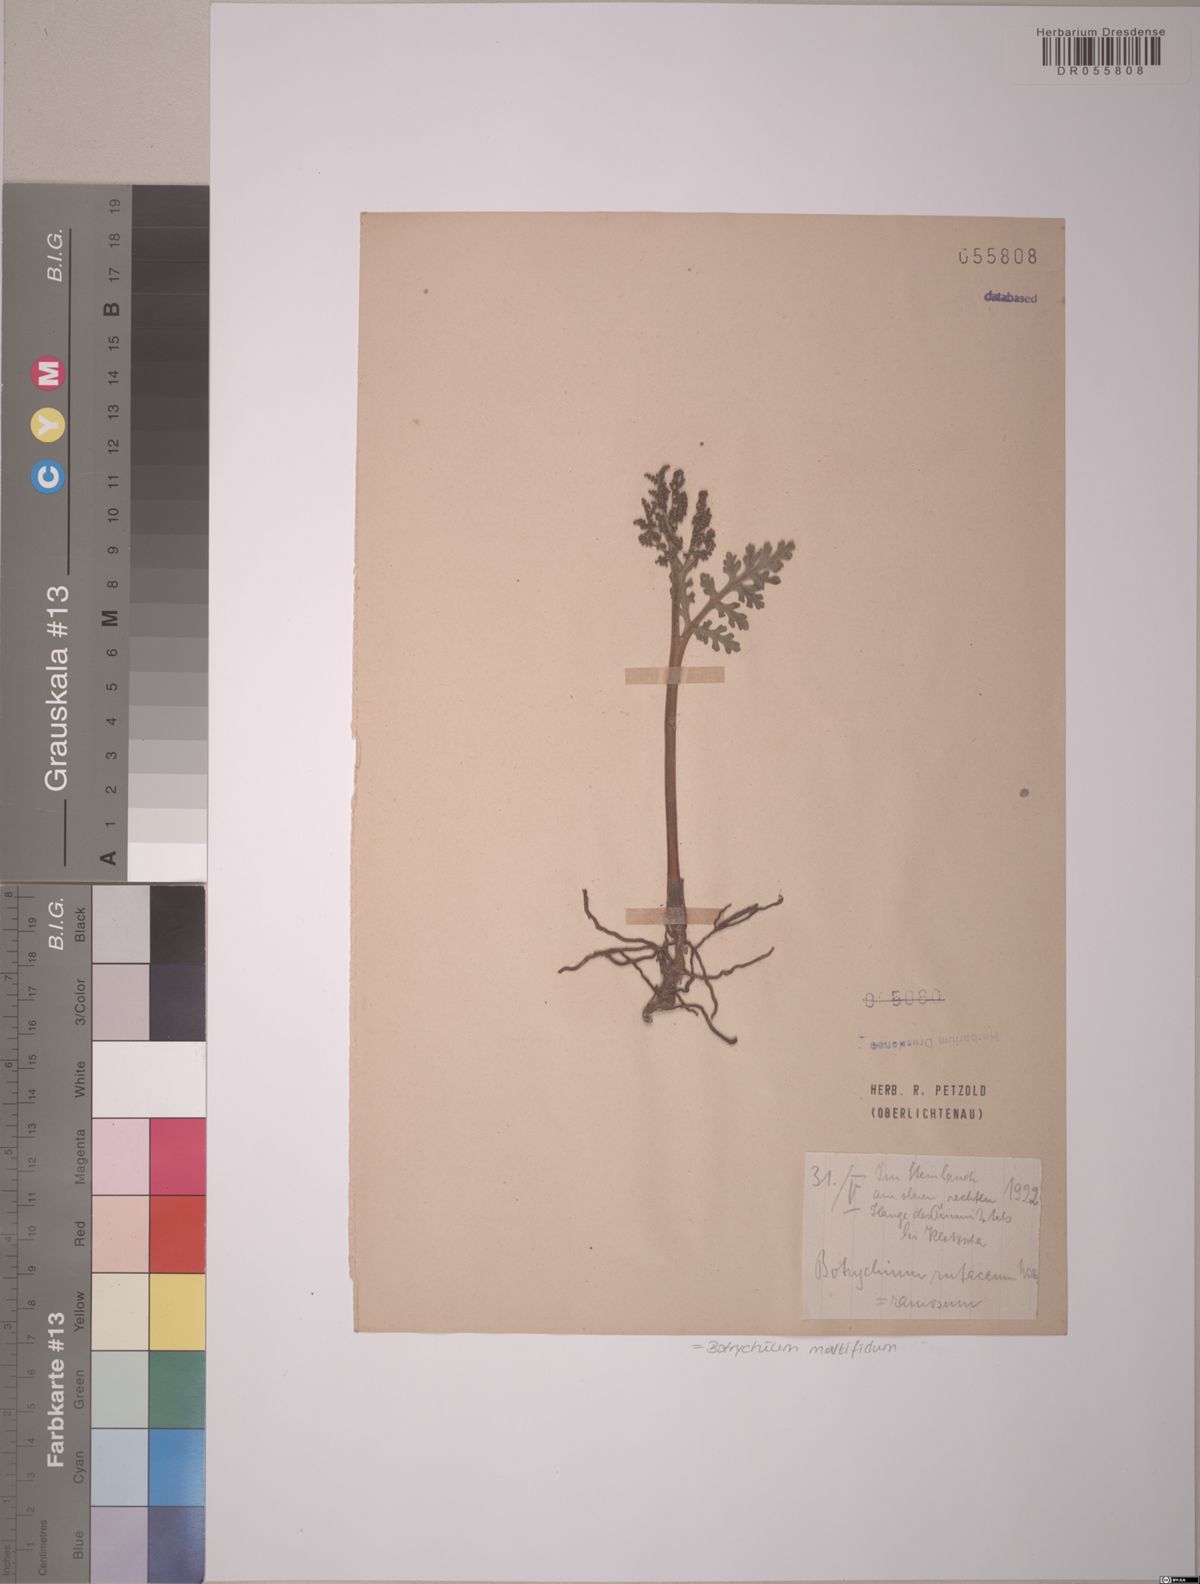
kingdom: Plantae
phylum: Tracheophyta
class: Polypodiopsida
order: Ophioglossales
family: Ophioglossaceae
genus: Sceptridium
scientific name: Sceptridium multifidum
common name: Leathery grape fern
